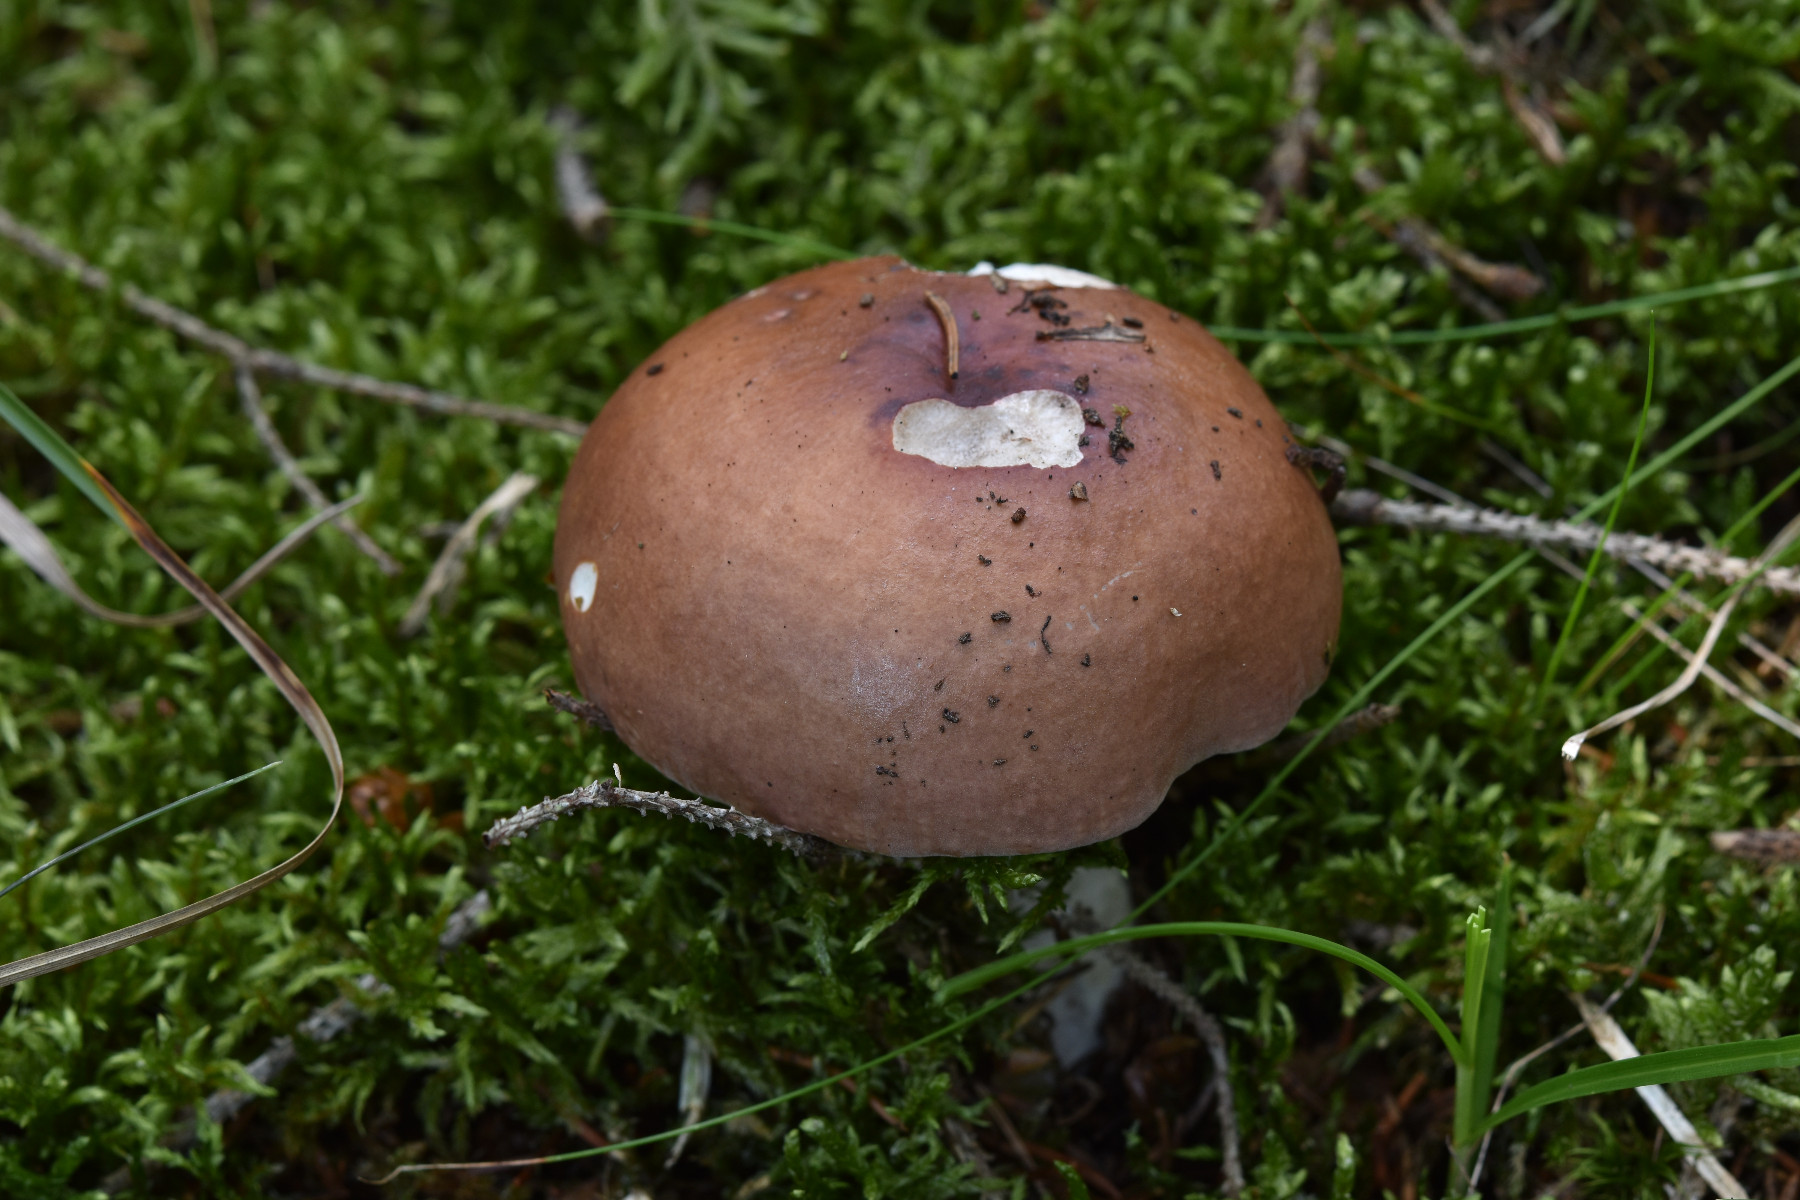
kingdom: Fungi
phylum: Basidiomycota
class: Agaricomycetes
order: Russulales
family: Russulaceae
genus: Russula
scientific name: Russula vinosa
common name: vinrød skørhat
